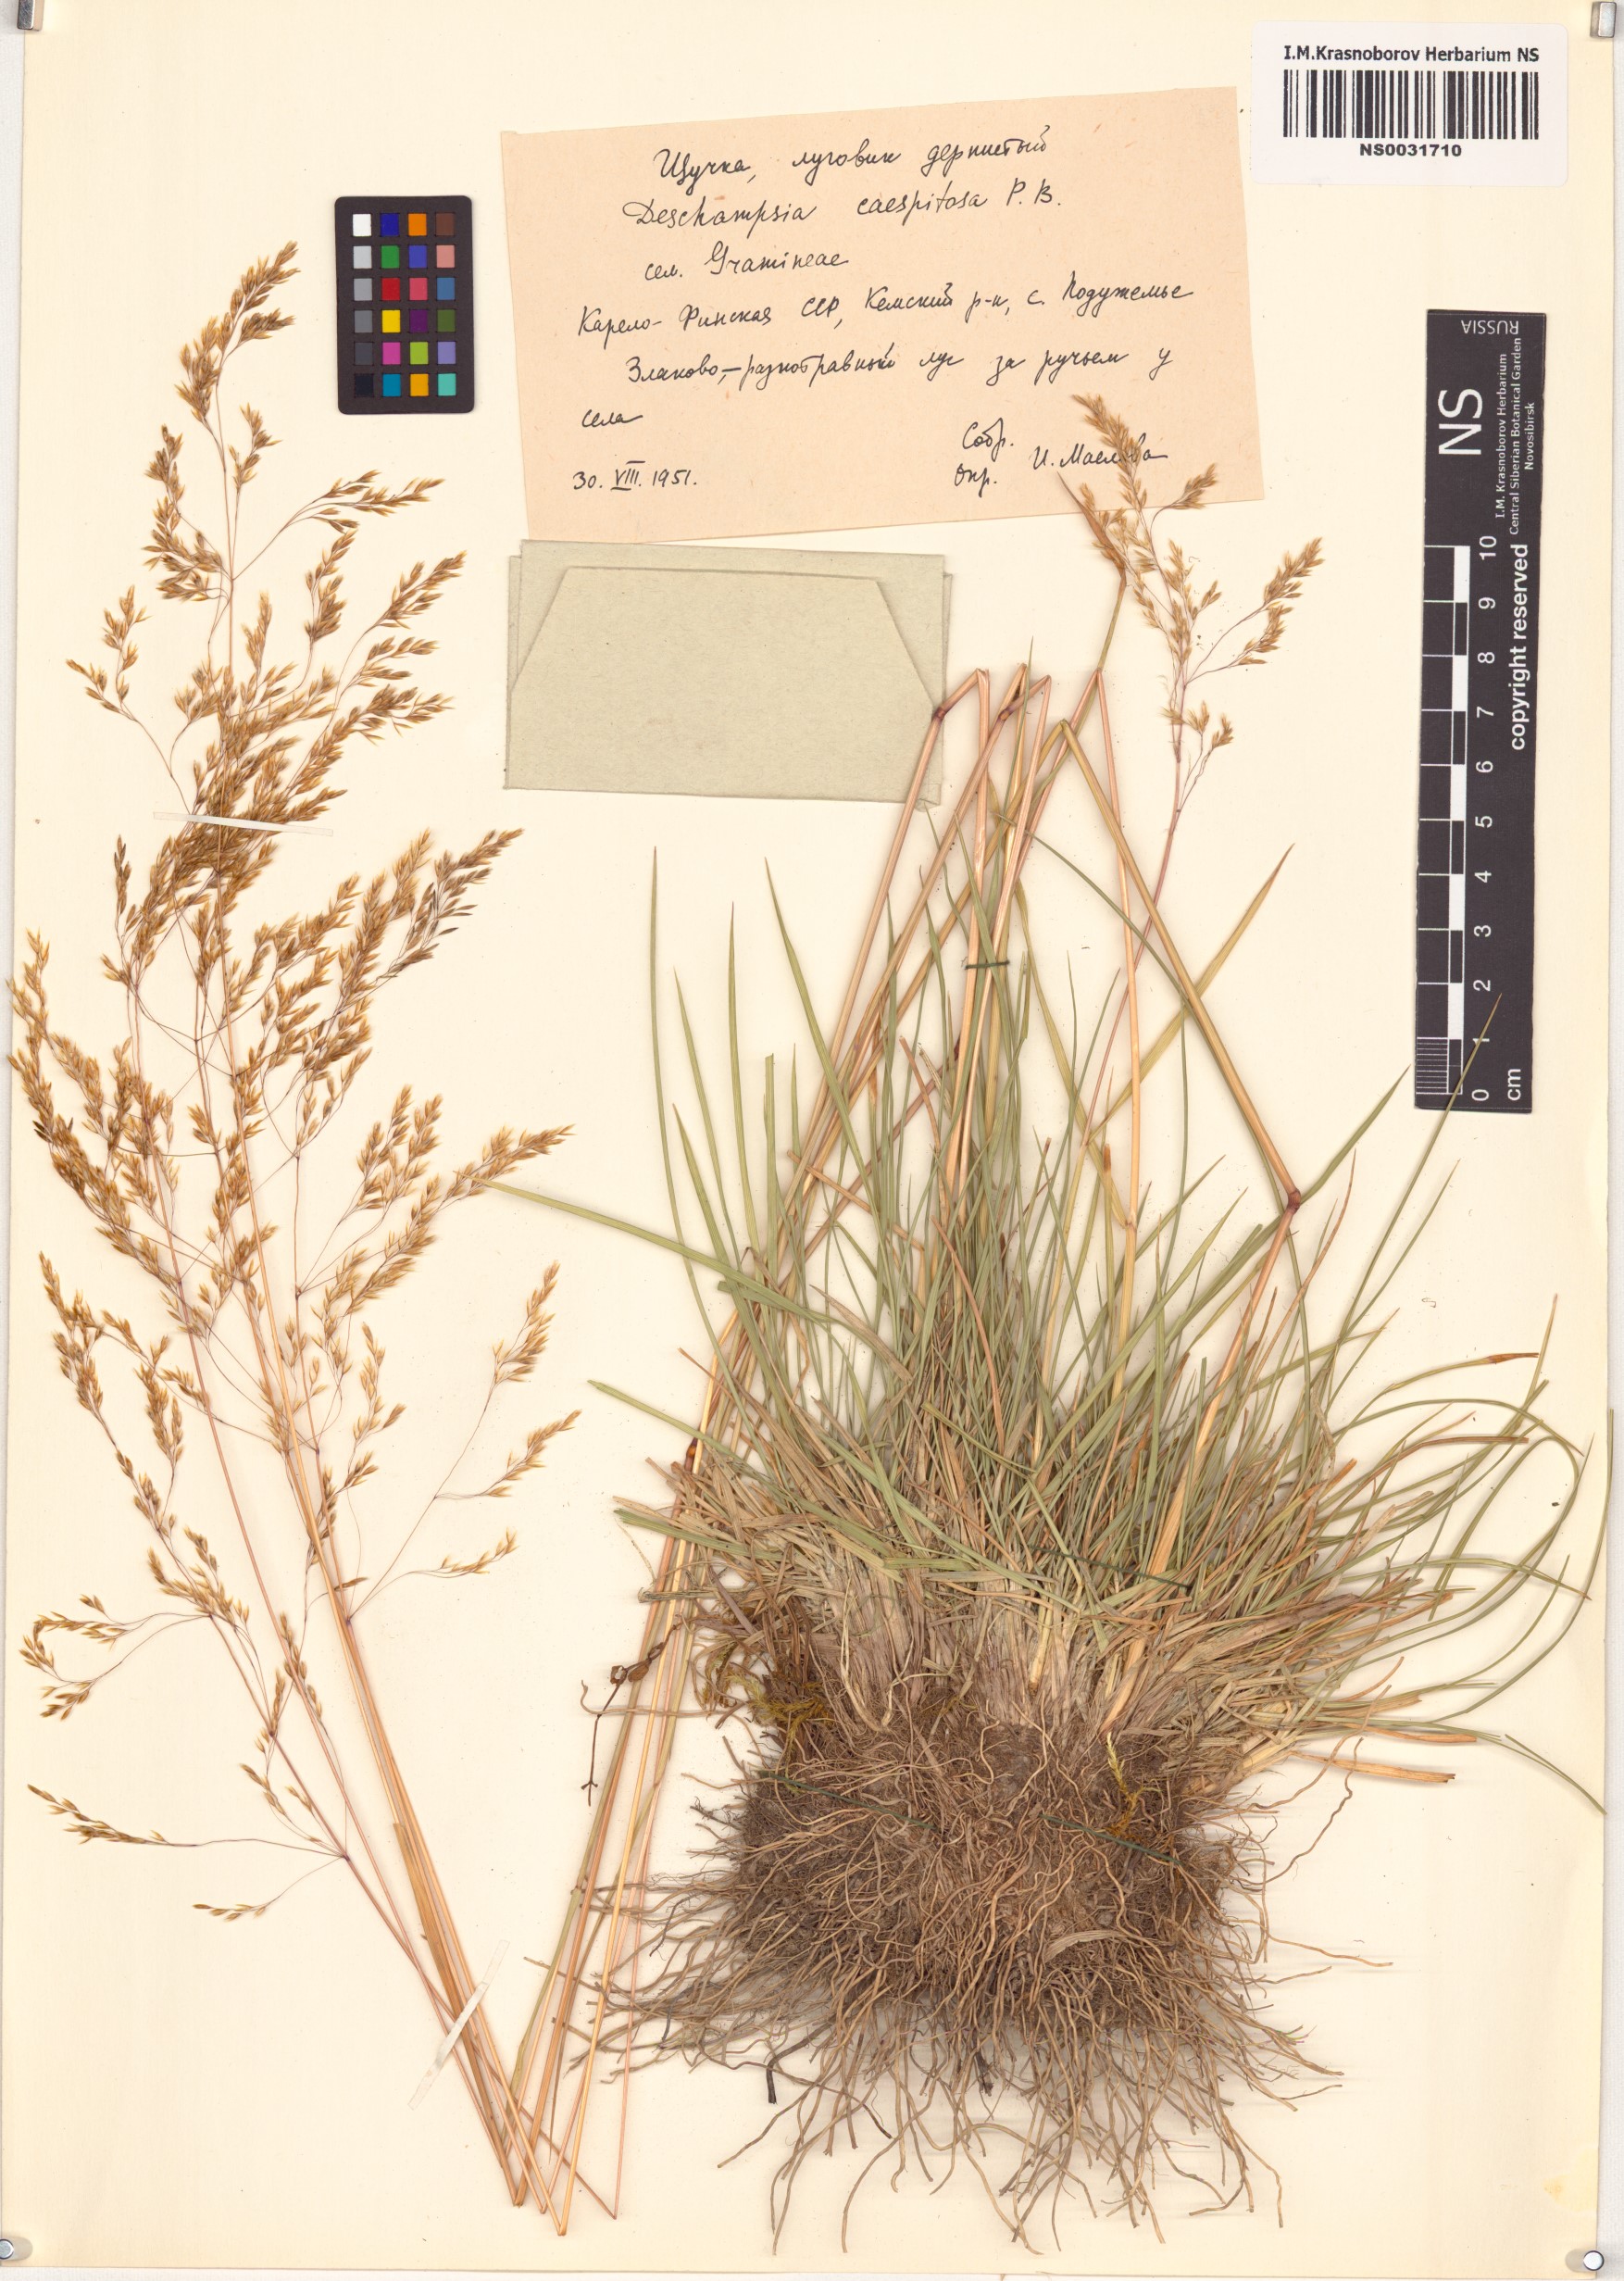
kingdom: Plantae
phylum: Tracheophyta
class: Liliopsida
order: Poales
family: Poaceae
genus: Deschampsia
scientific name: Deschampsia cespitosa
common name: Tufted hair-grass
